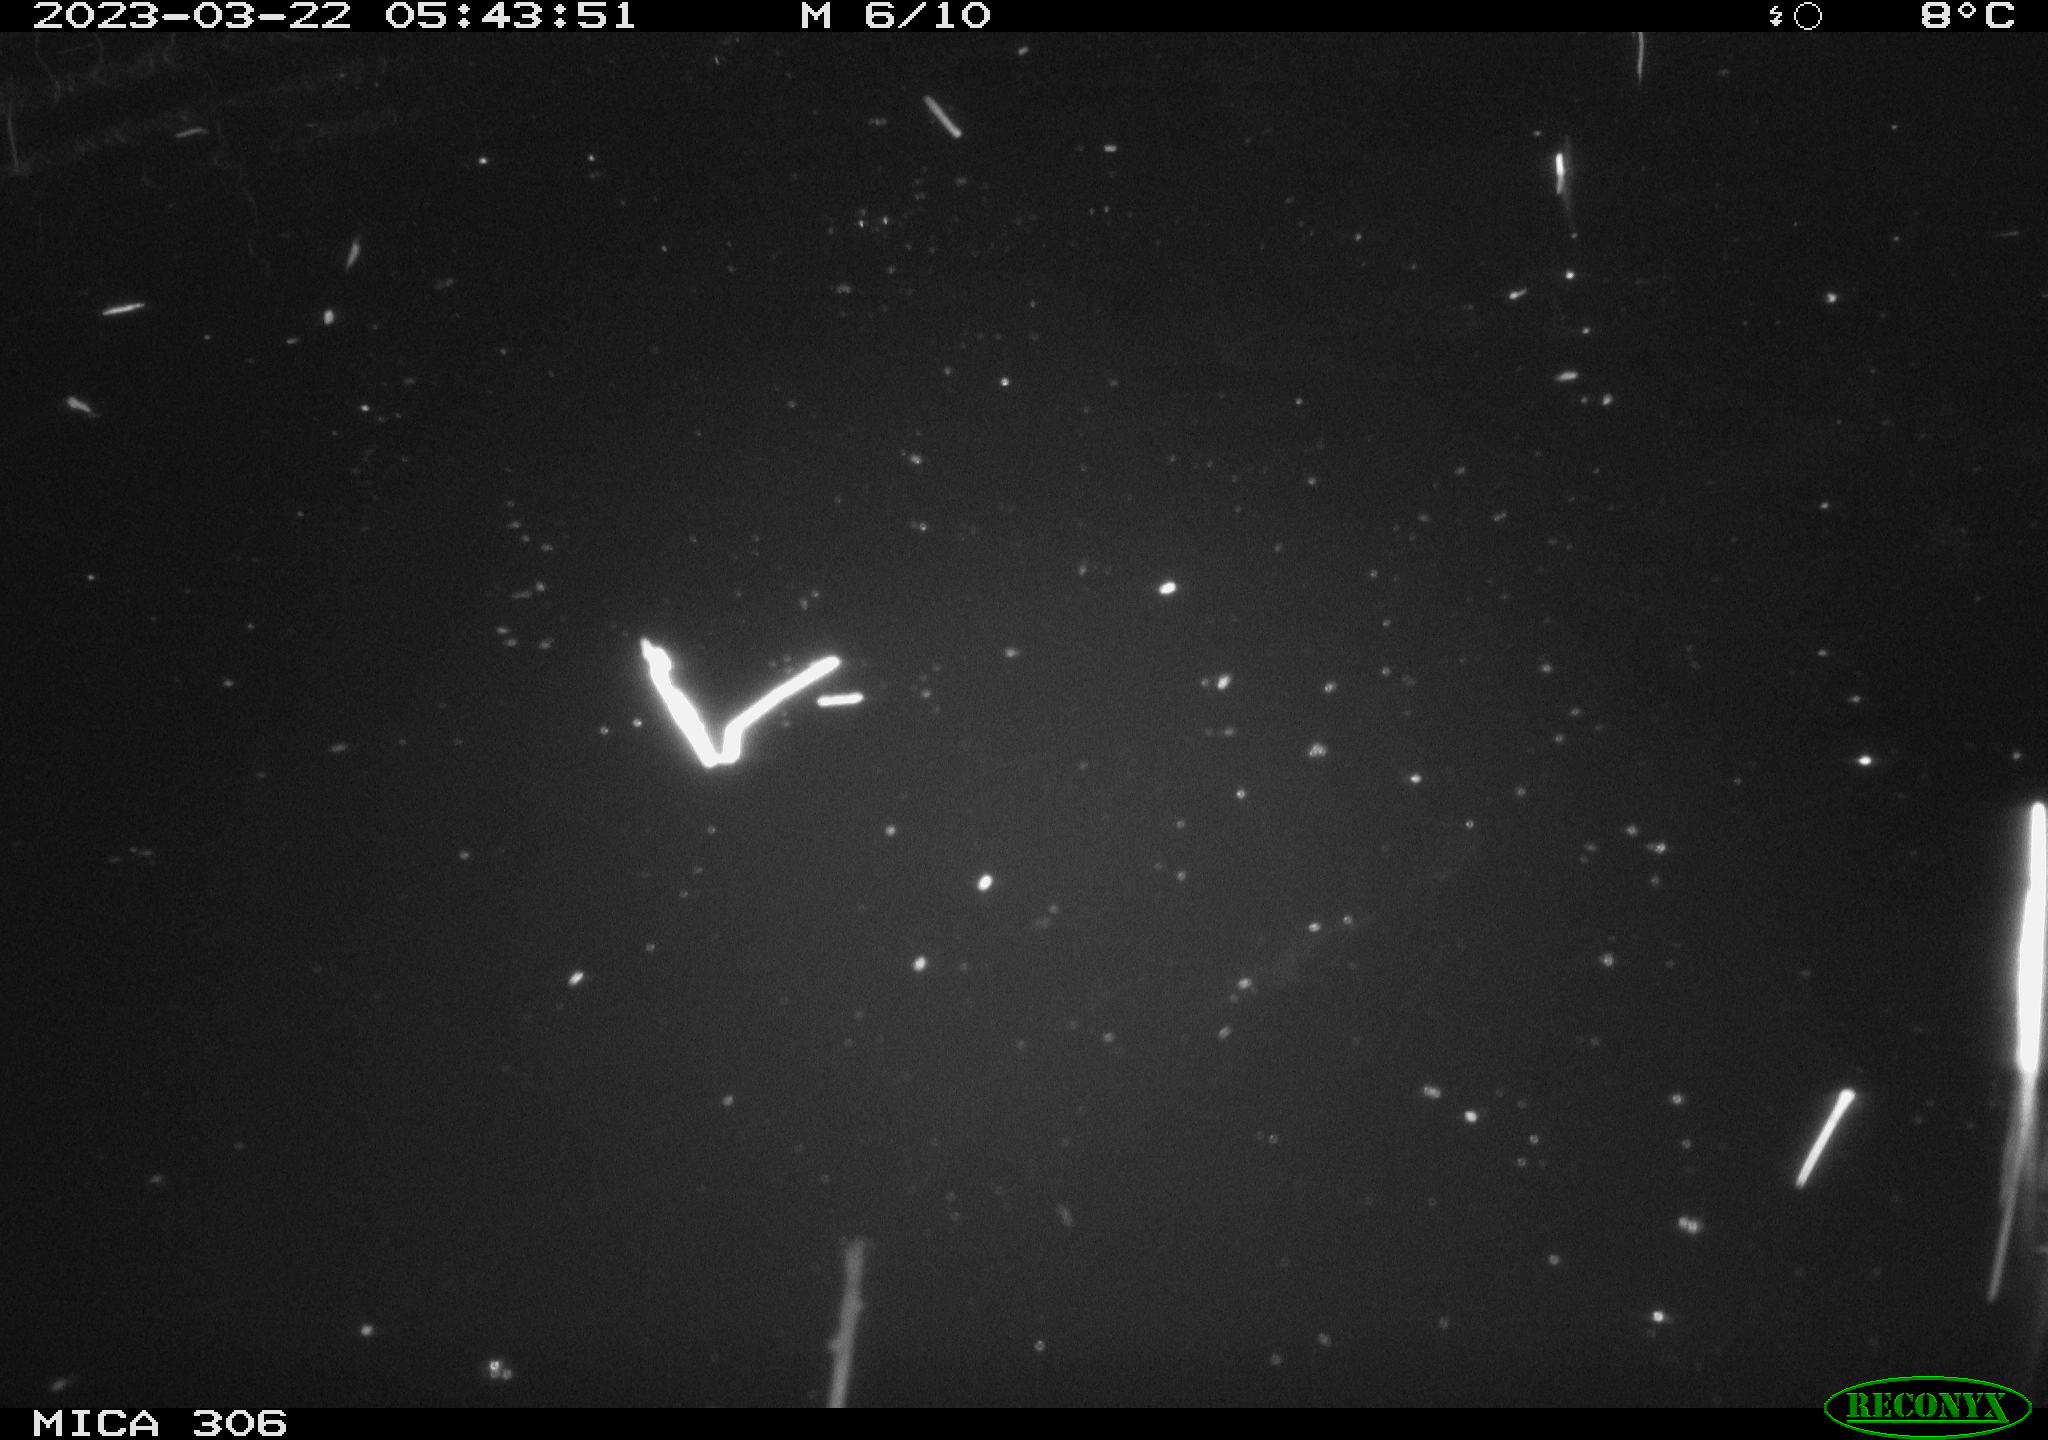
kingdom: Animalia
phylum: Chordata
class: Aves
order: Anseriformes
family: Anatidae
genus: Anas
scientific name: Anas
